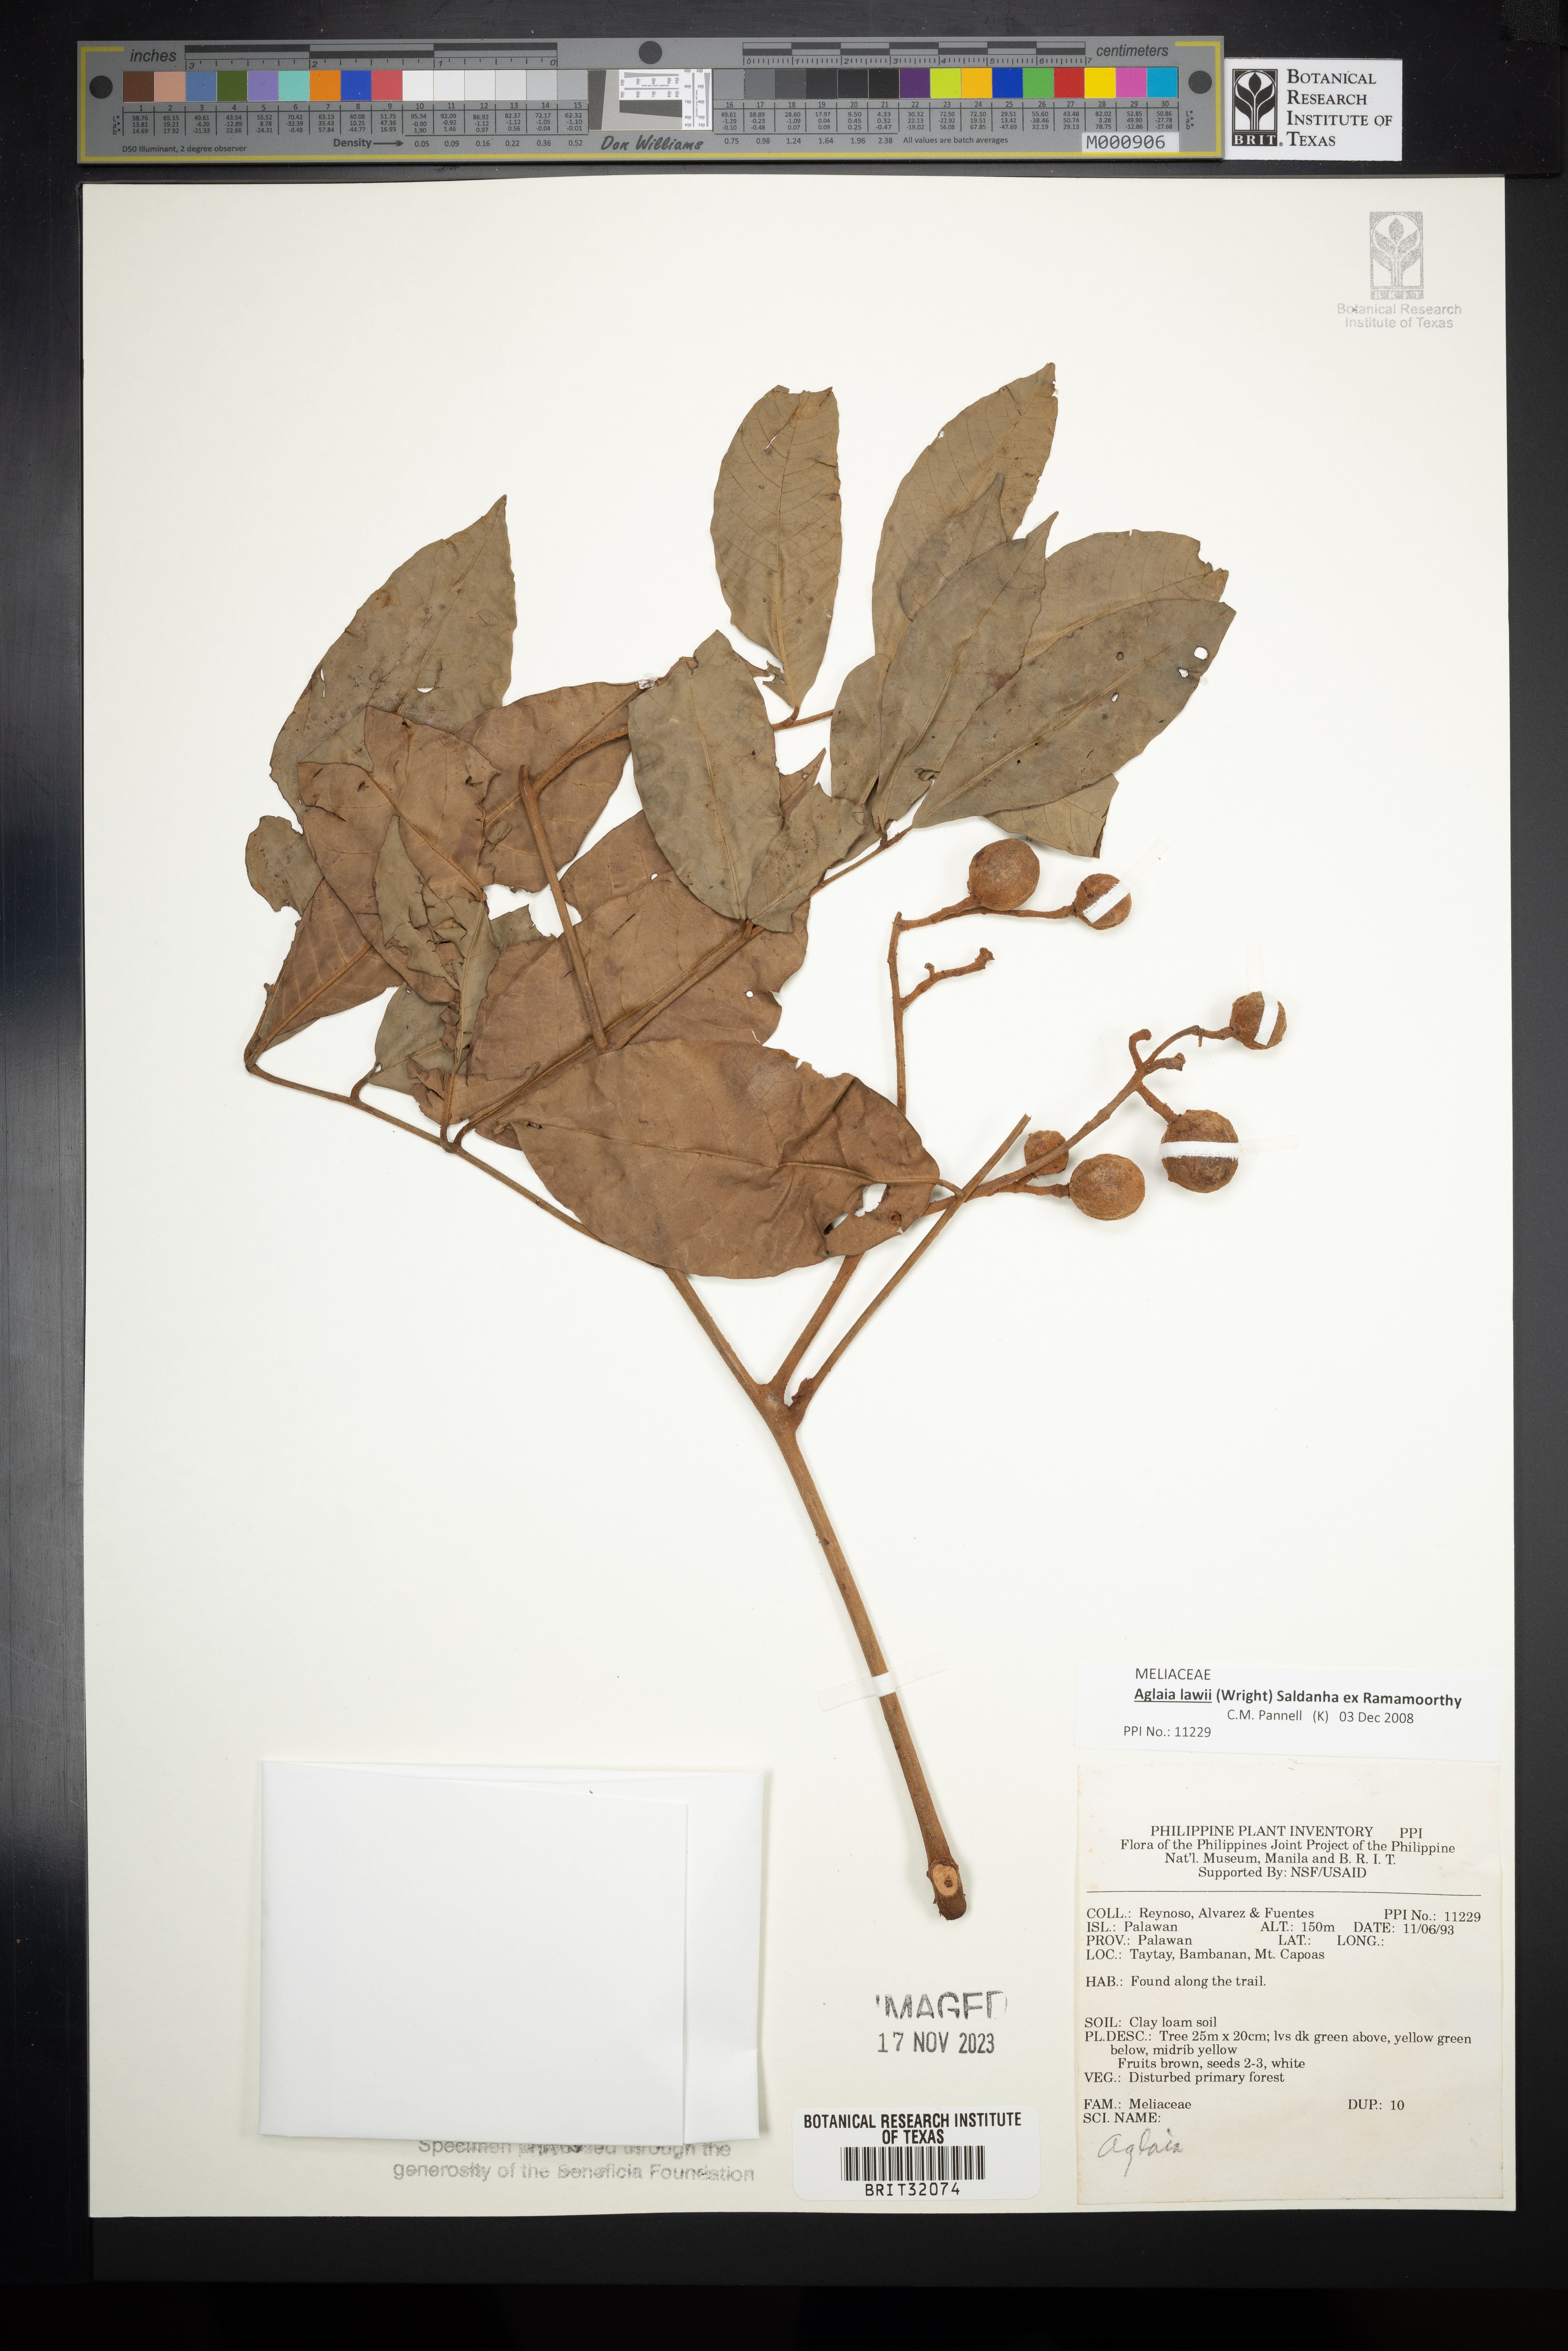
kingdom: Plantae
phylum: Tracheophyta
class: Magnoliopsida
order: Sapindales
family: Meliaceae
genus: Aglaia
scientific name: Aglaia
